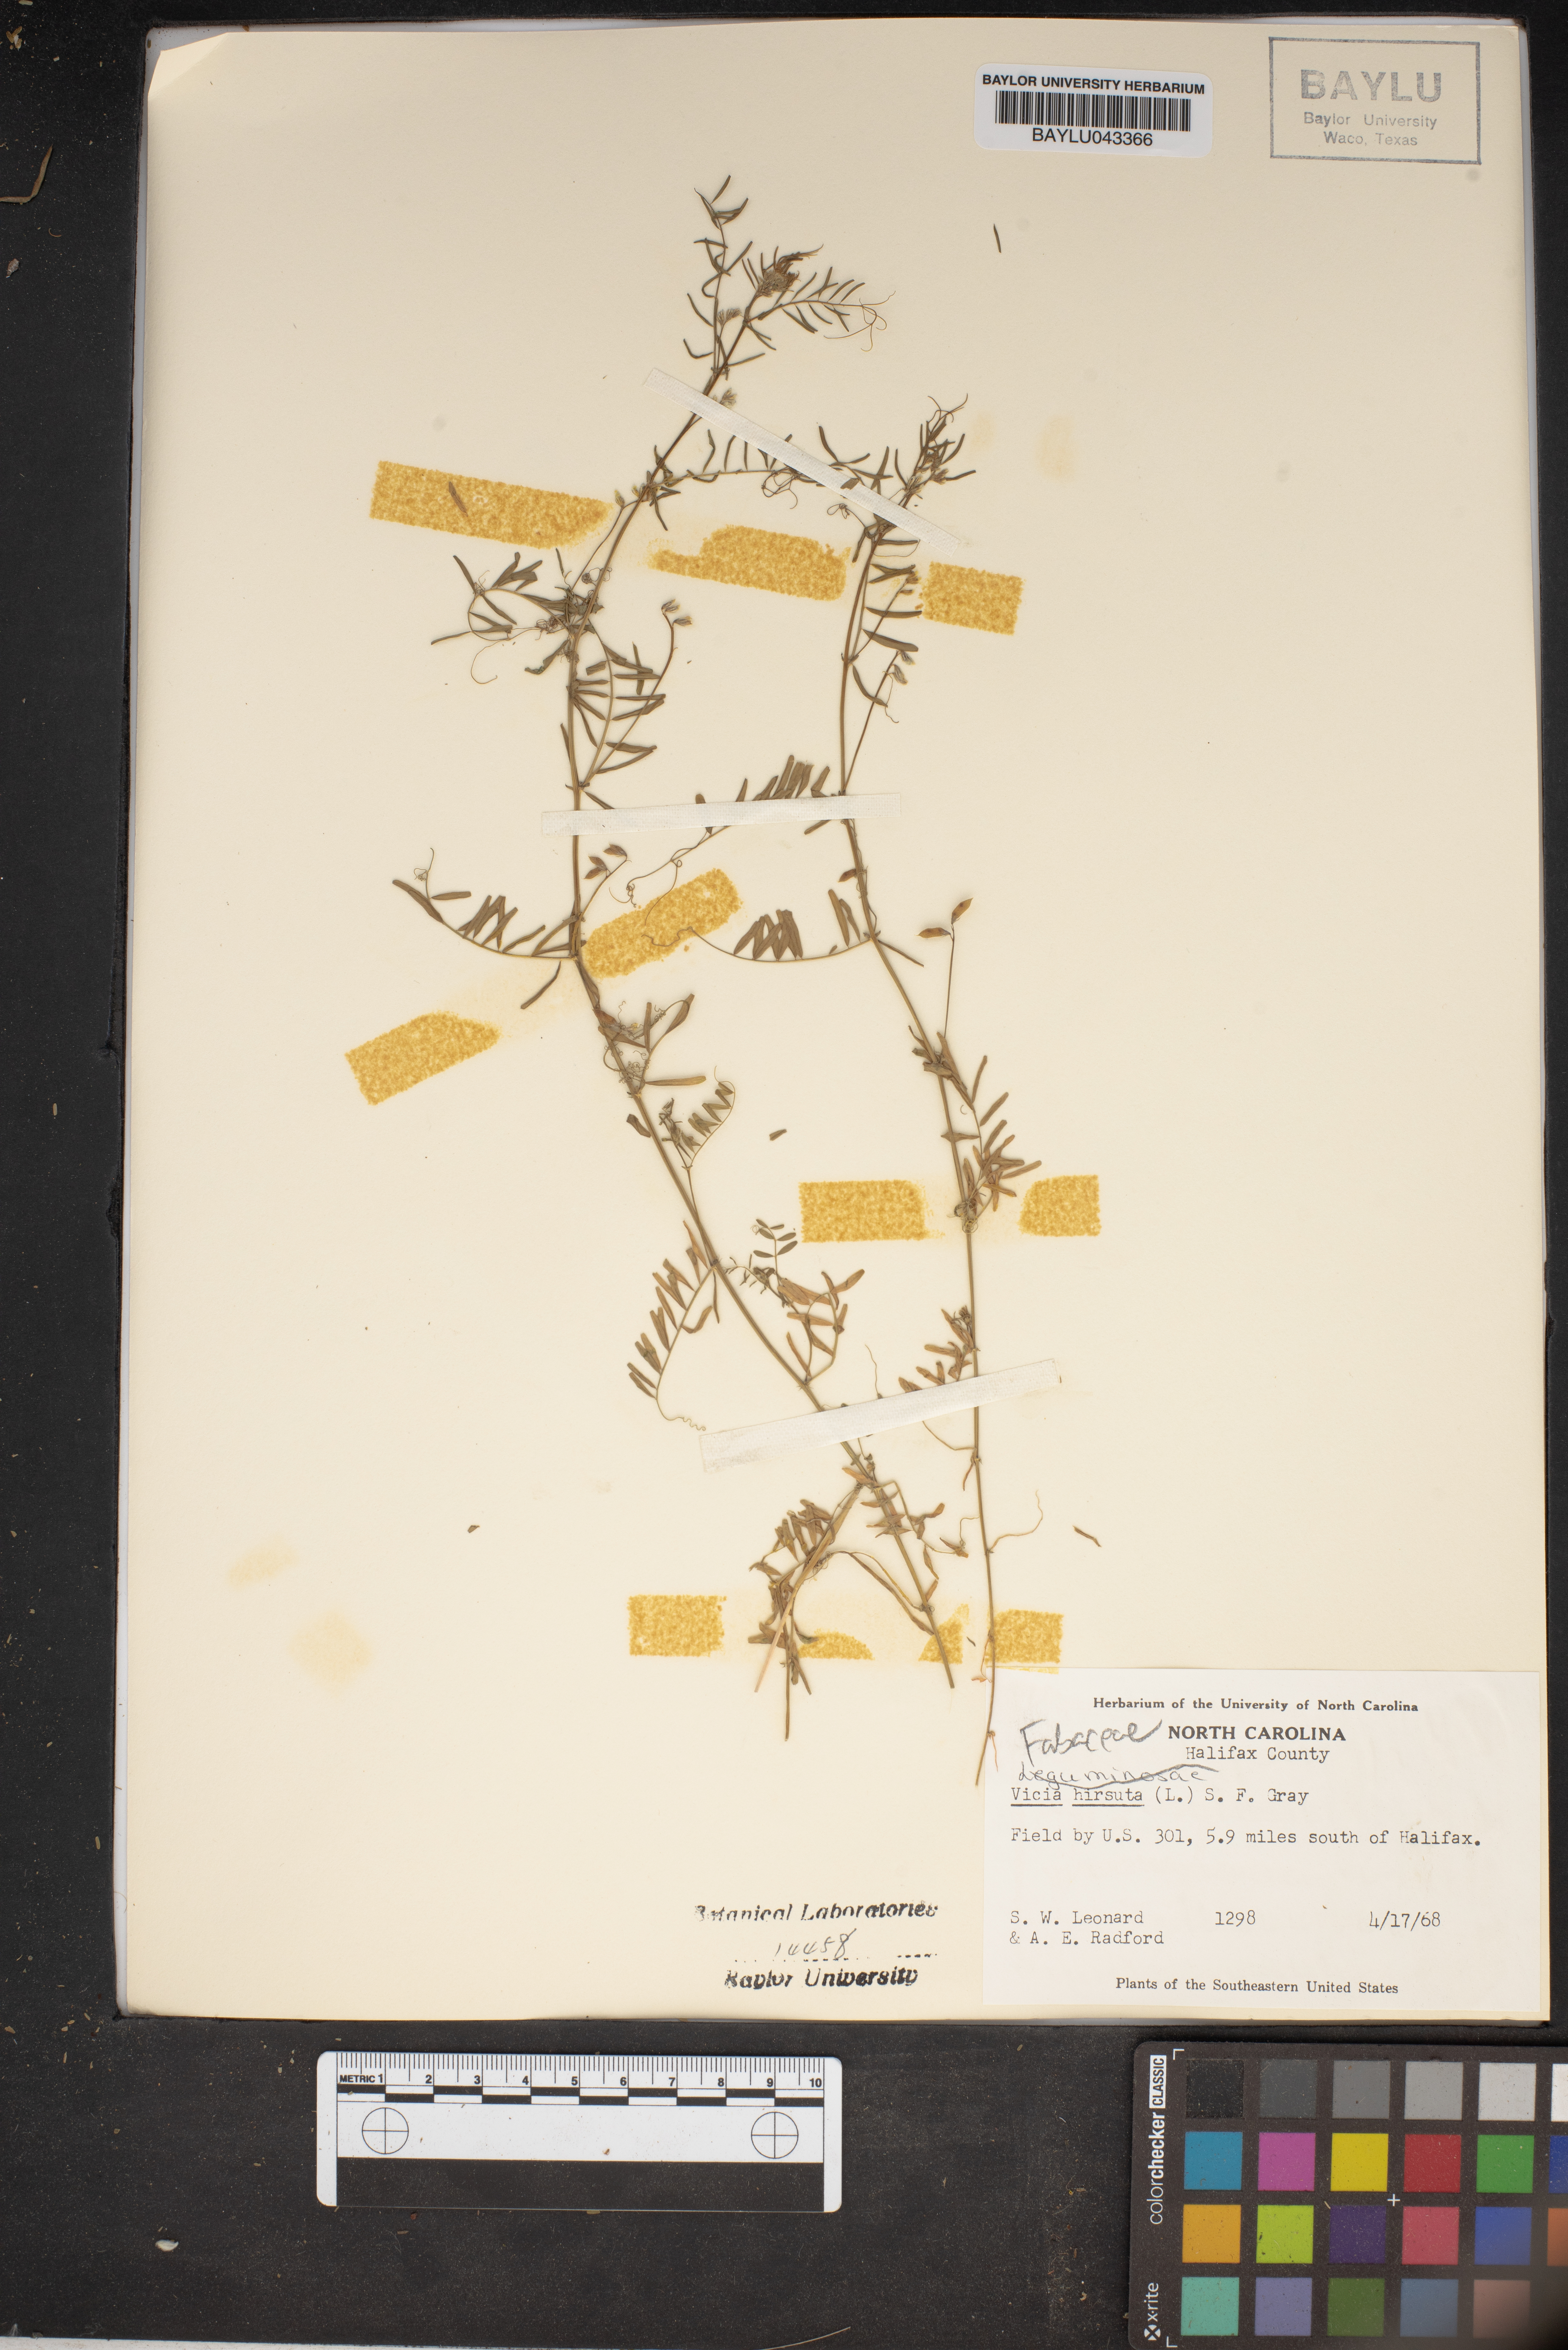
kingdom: Plantae
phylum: Tracheophyta
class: Magnoliopsida
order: Fabales
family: Fabaceae
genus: Vicia
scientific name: Vicia hirsuta
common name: Tiny vetch
